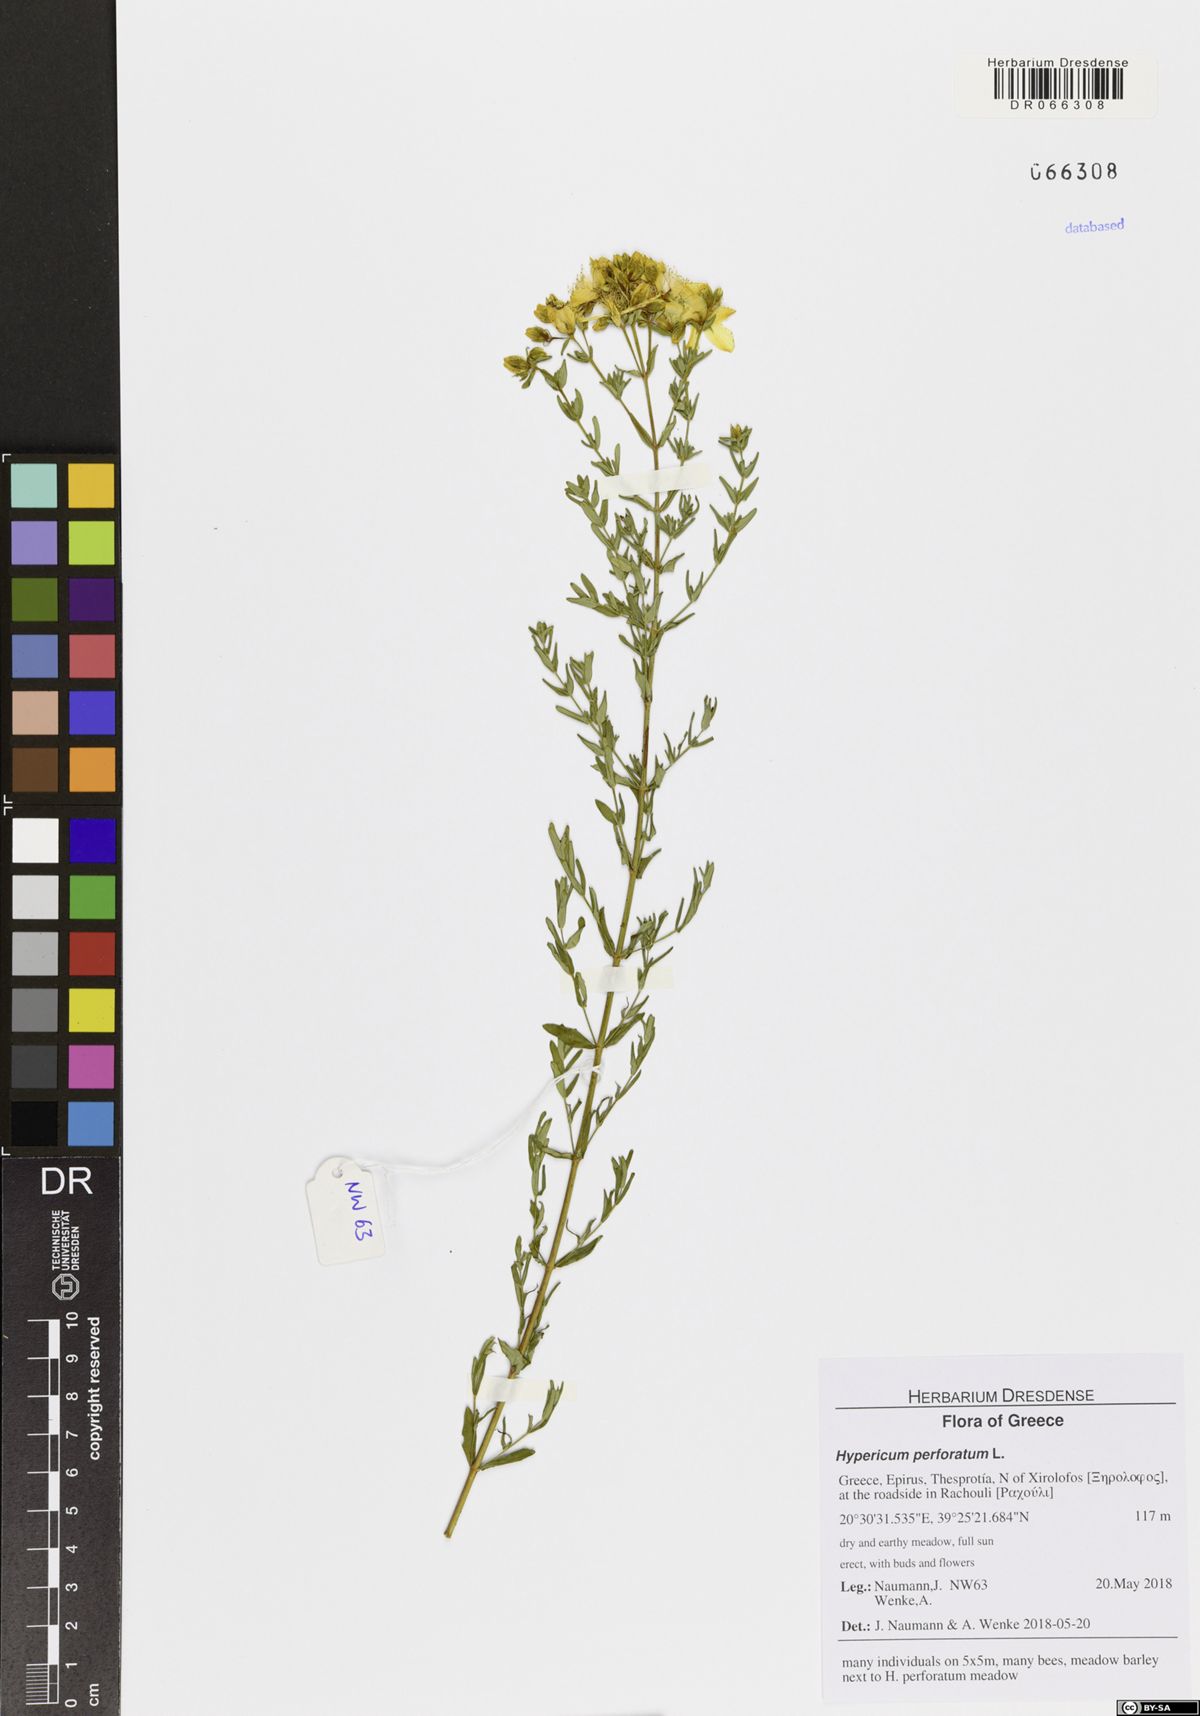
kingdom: Plantae
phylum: Tracheophyta
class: Magnoliopsida
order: Malpighiales
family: Hypericaceae
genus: Hypericum
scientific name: Hypericum perforatum
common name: Common st. johnswort
